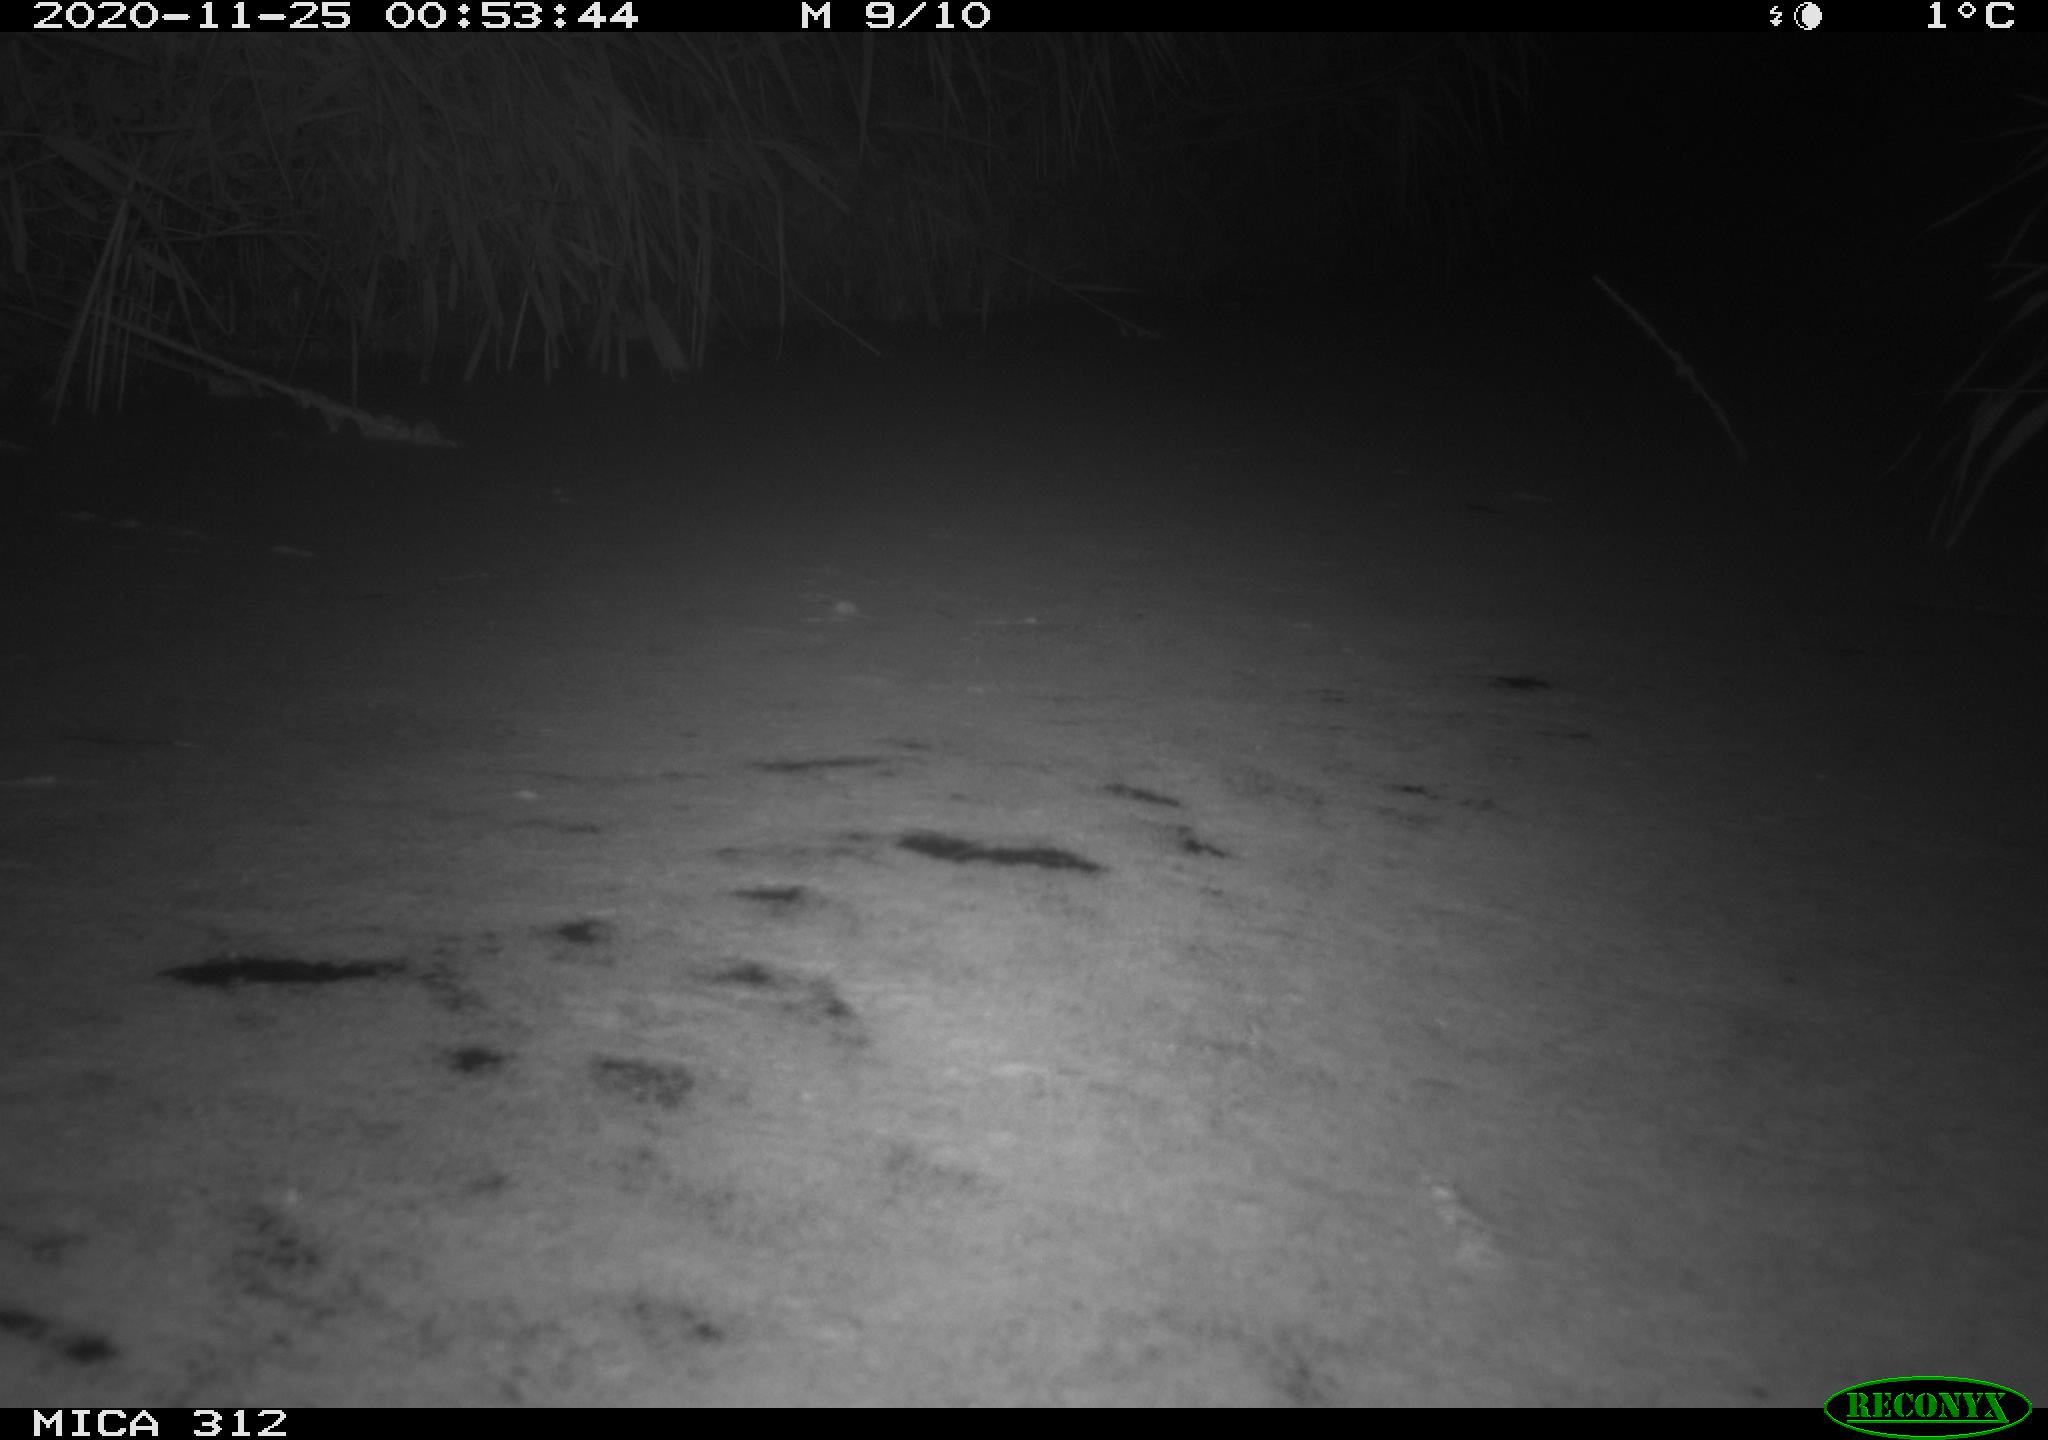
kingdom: Animalia
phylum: Chordata
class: Mammalia
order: Rodentia
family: Muridae
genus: Rattus
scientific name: Rattus norvegicus
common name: Brown rat
